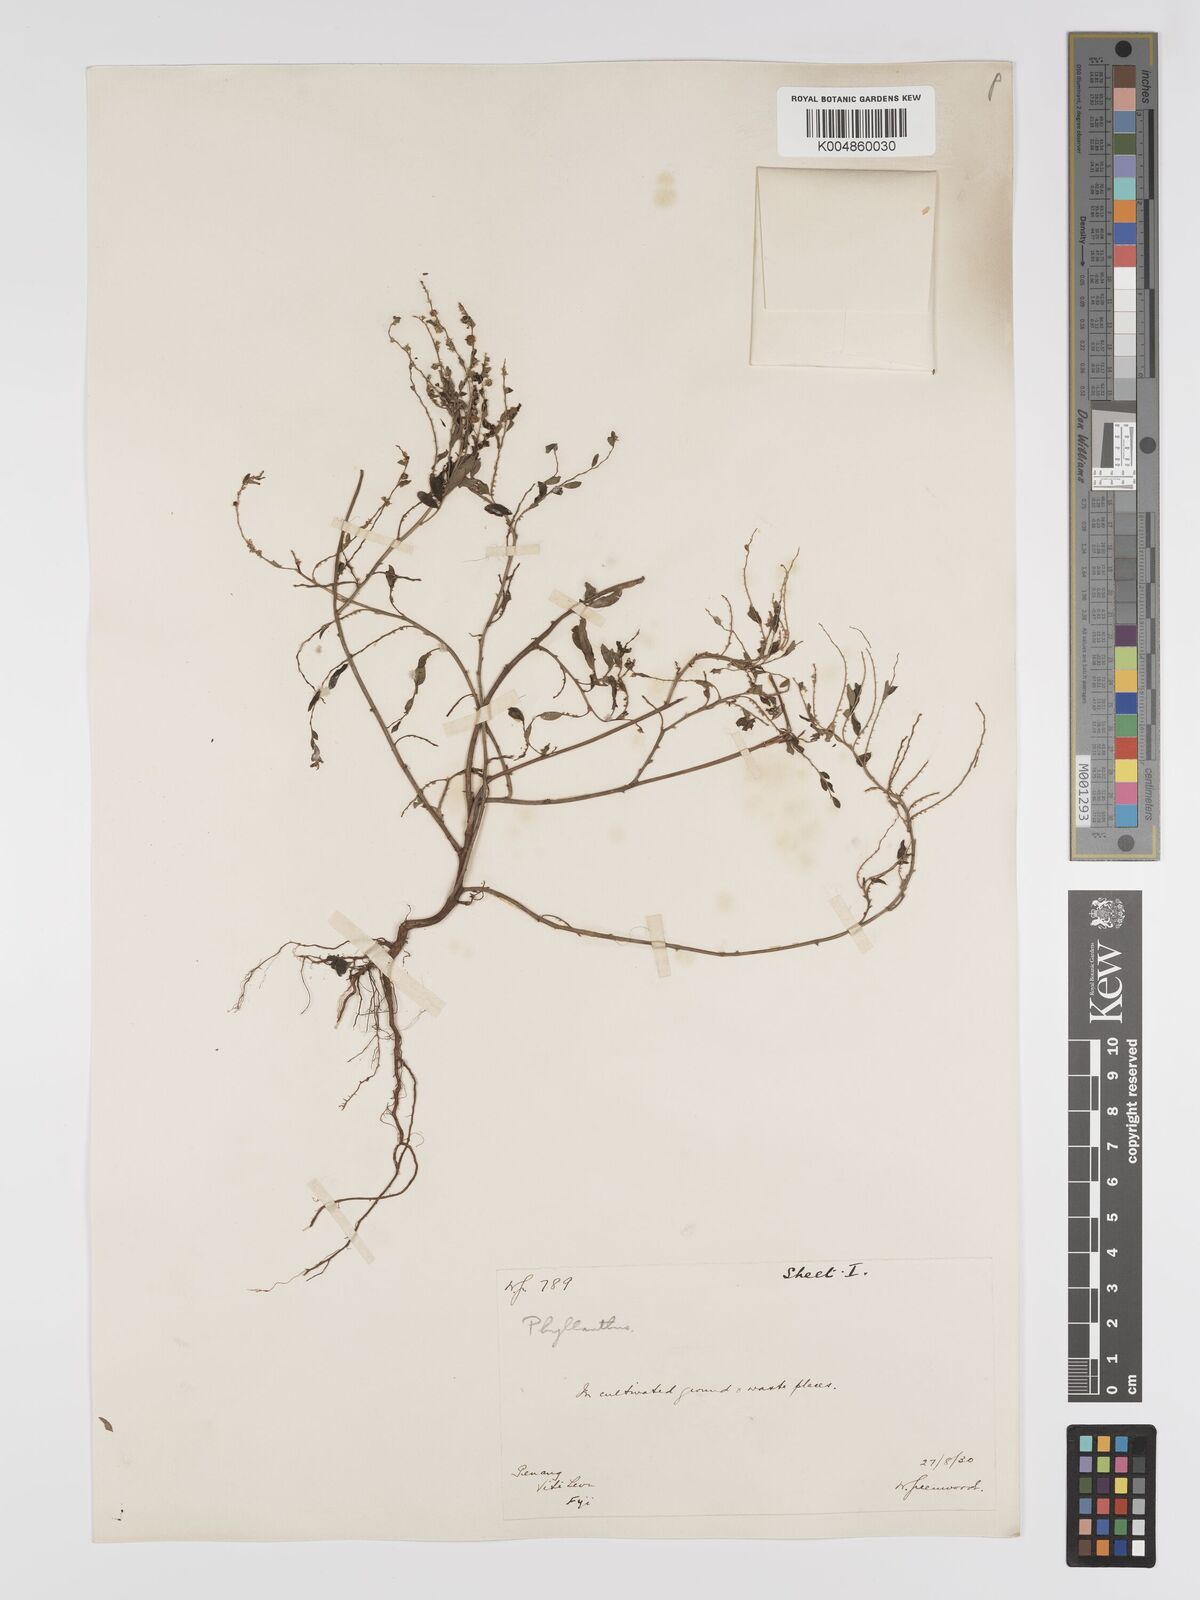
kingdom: Plantae
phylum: Tracheophyta
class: Magnoliopsida
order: Malpighiales
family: Phyllanthaceae
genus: Phyllanthus
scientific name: Phyllanthus
